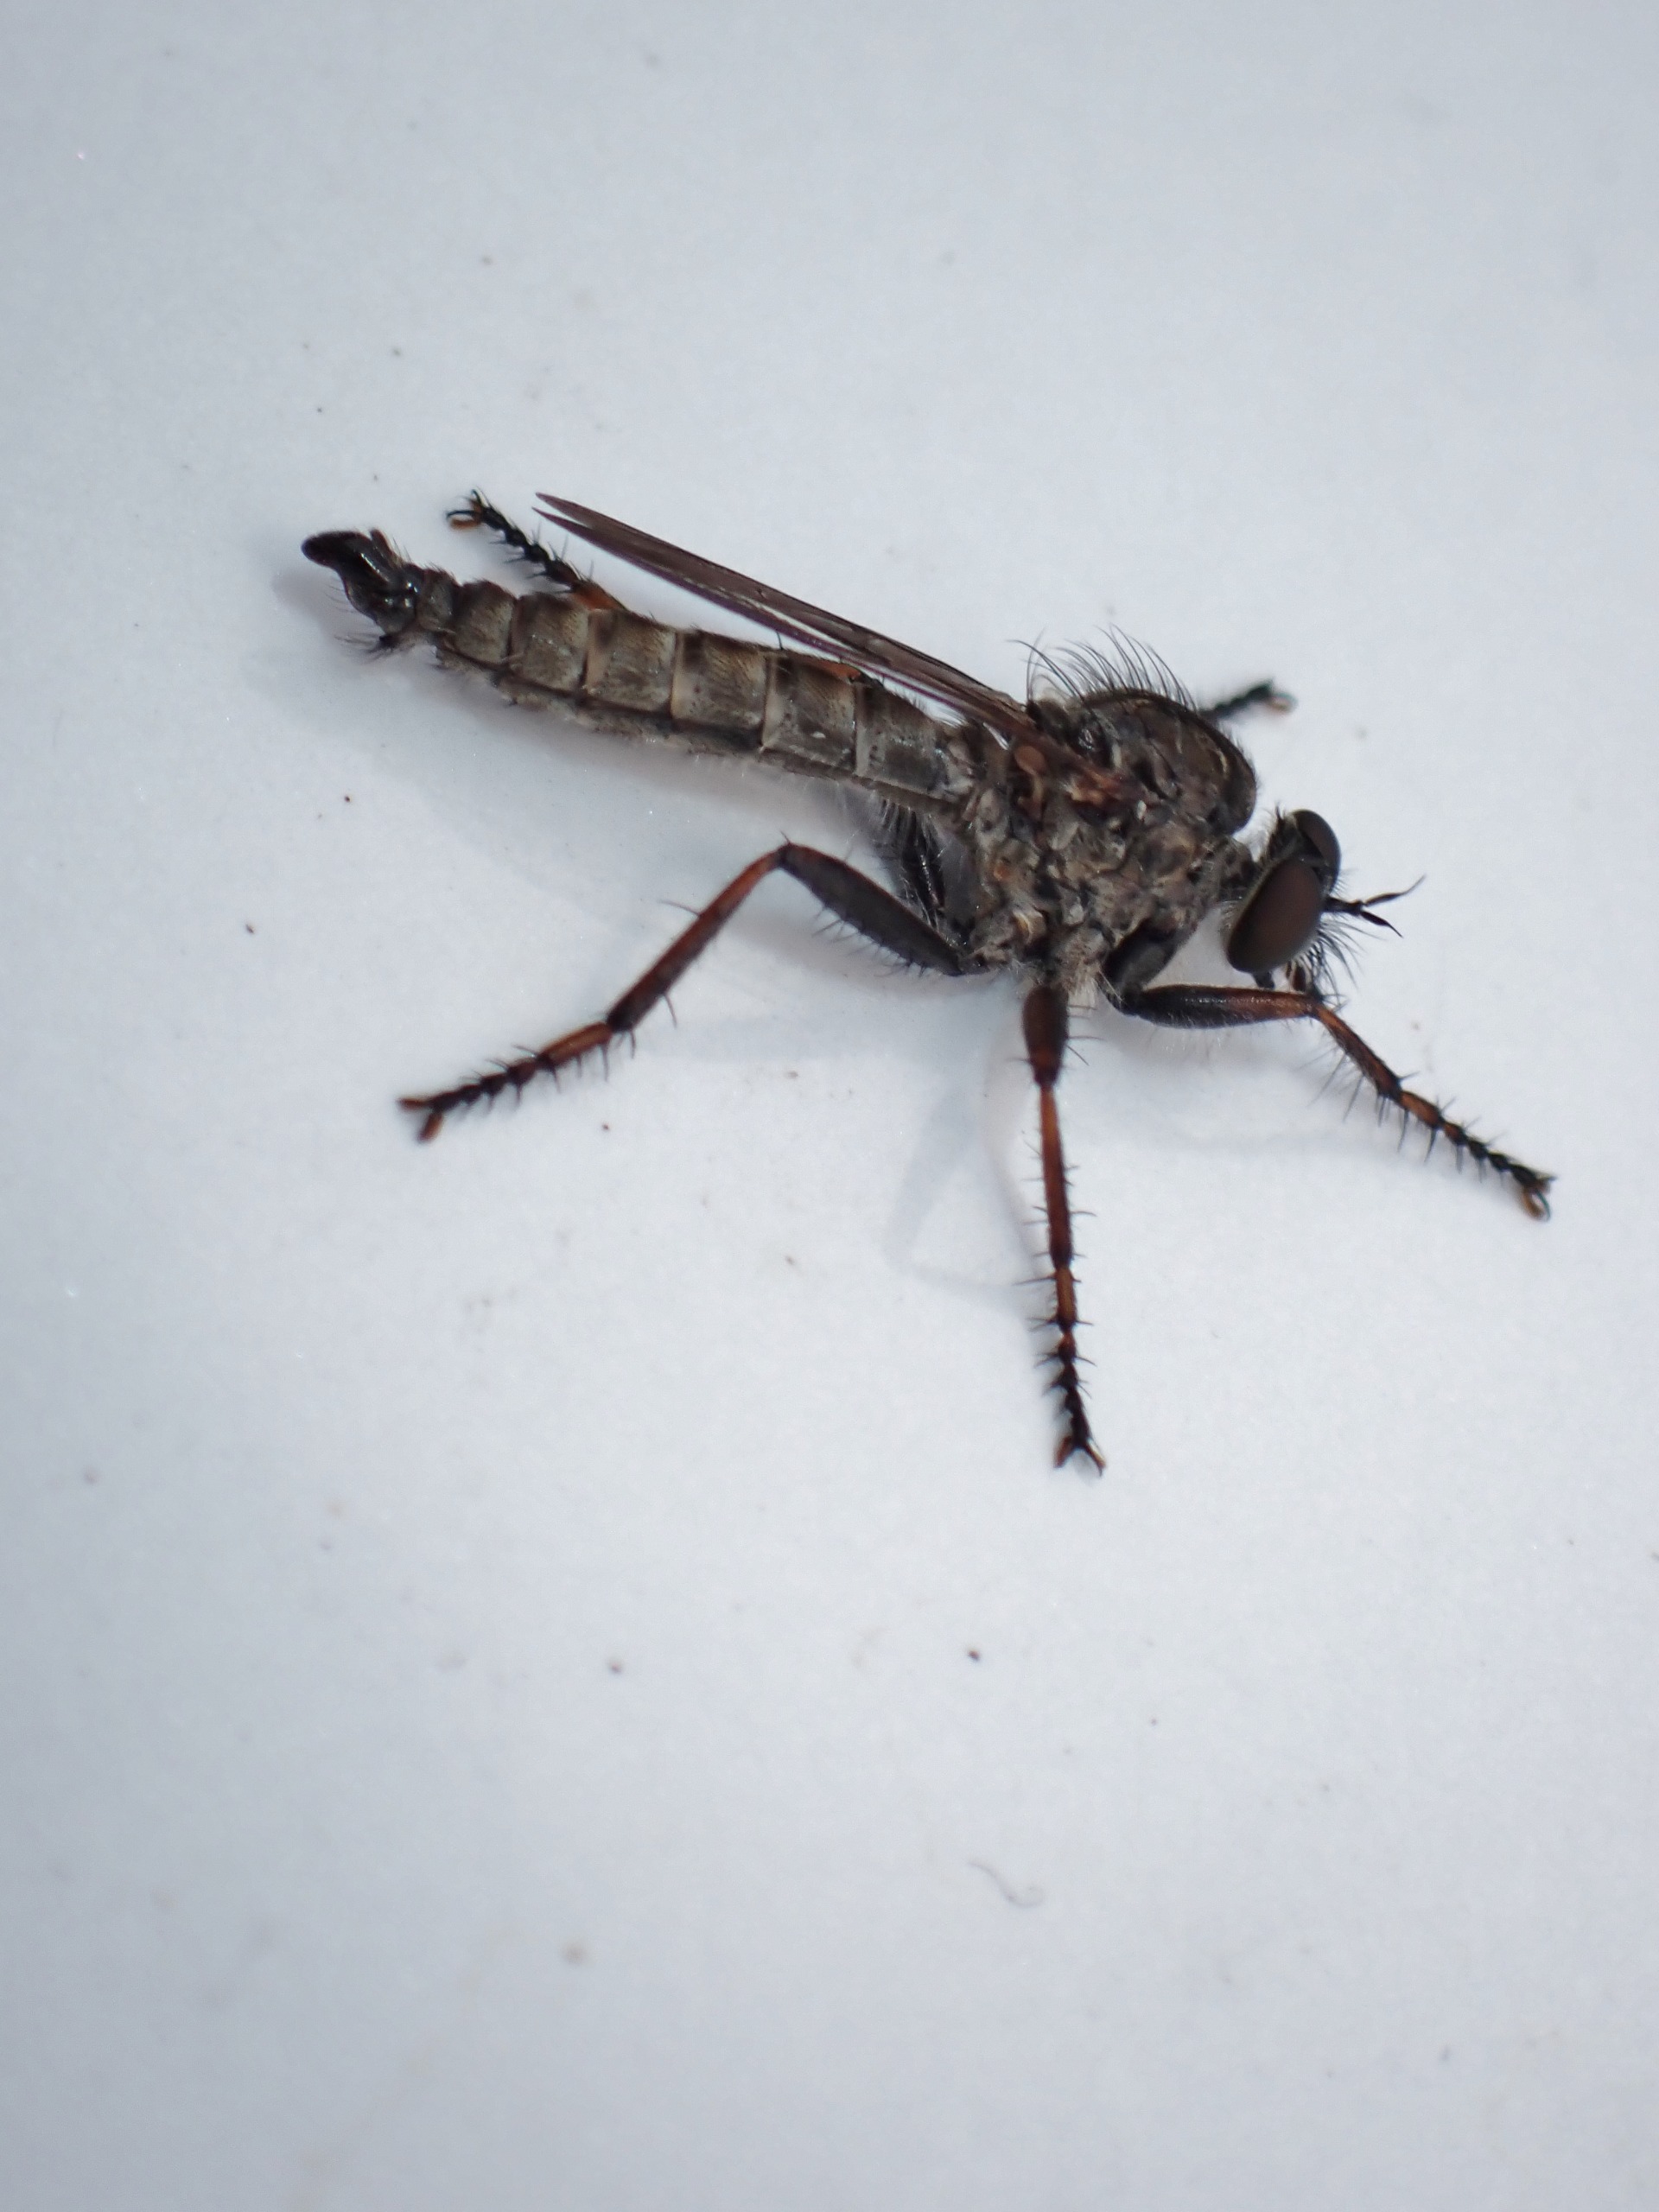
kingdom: Animalia
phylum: Arthropoda
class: Insecta
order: Diptera
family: Asilidae
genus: Machimus
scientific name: Machimus atricapillus
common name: Sort hårrovflue
